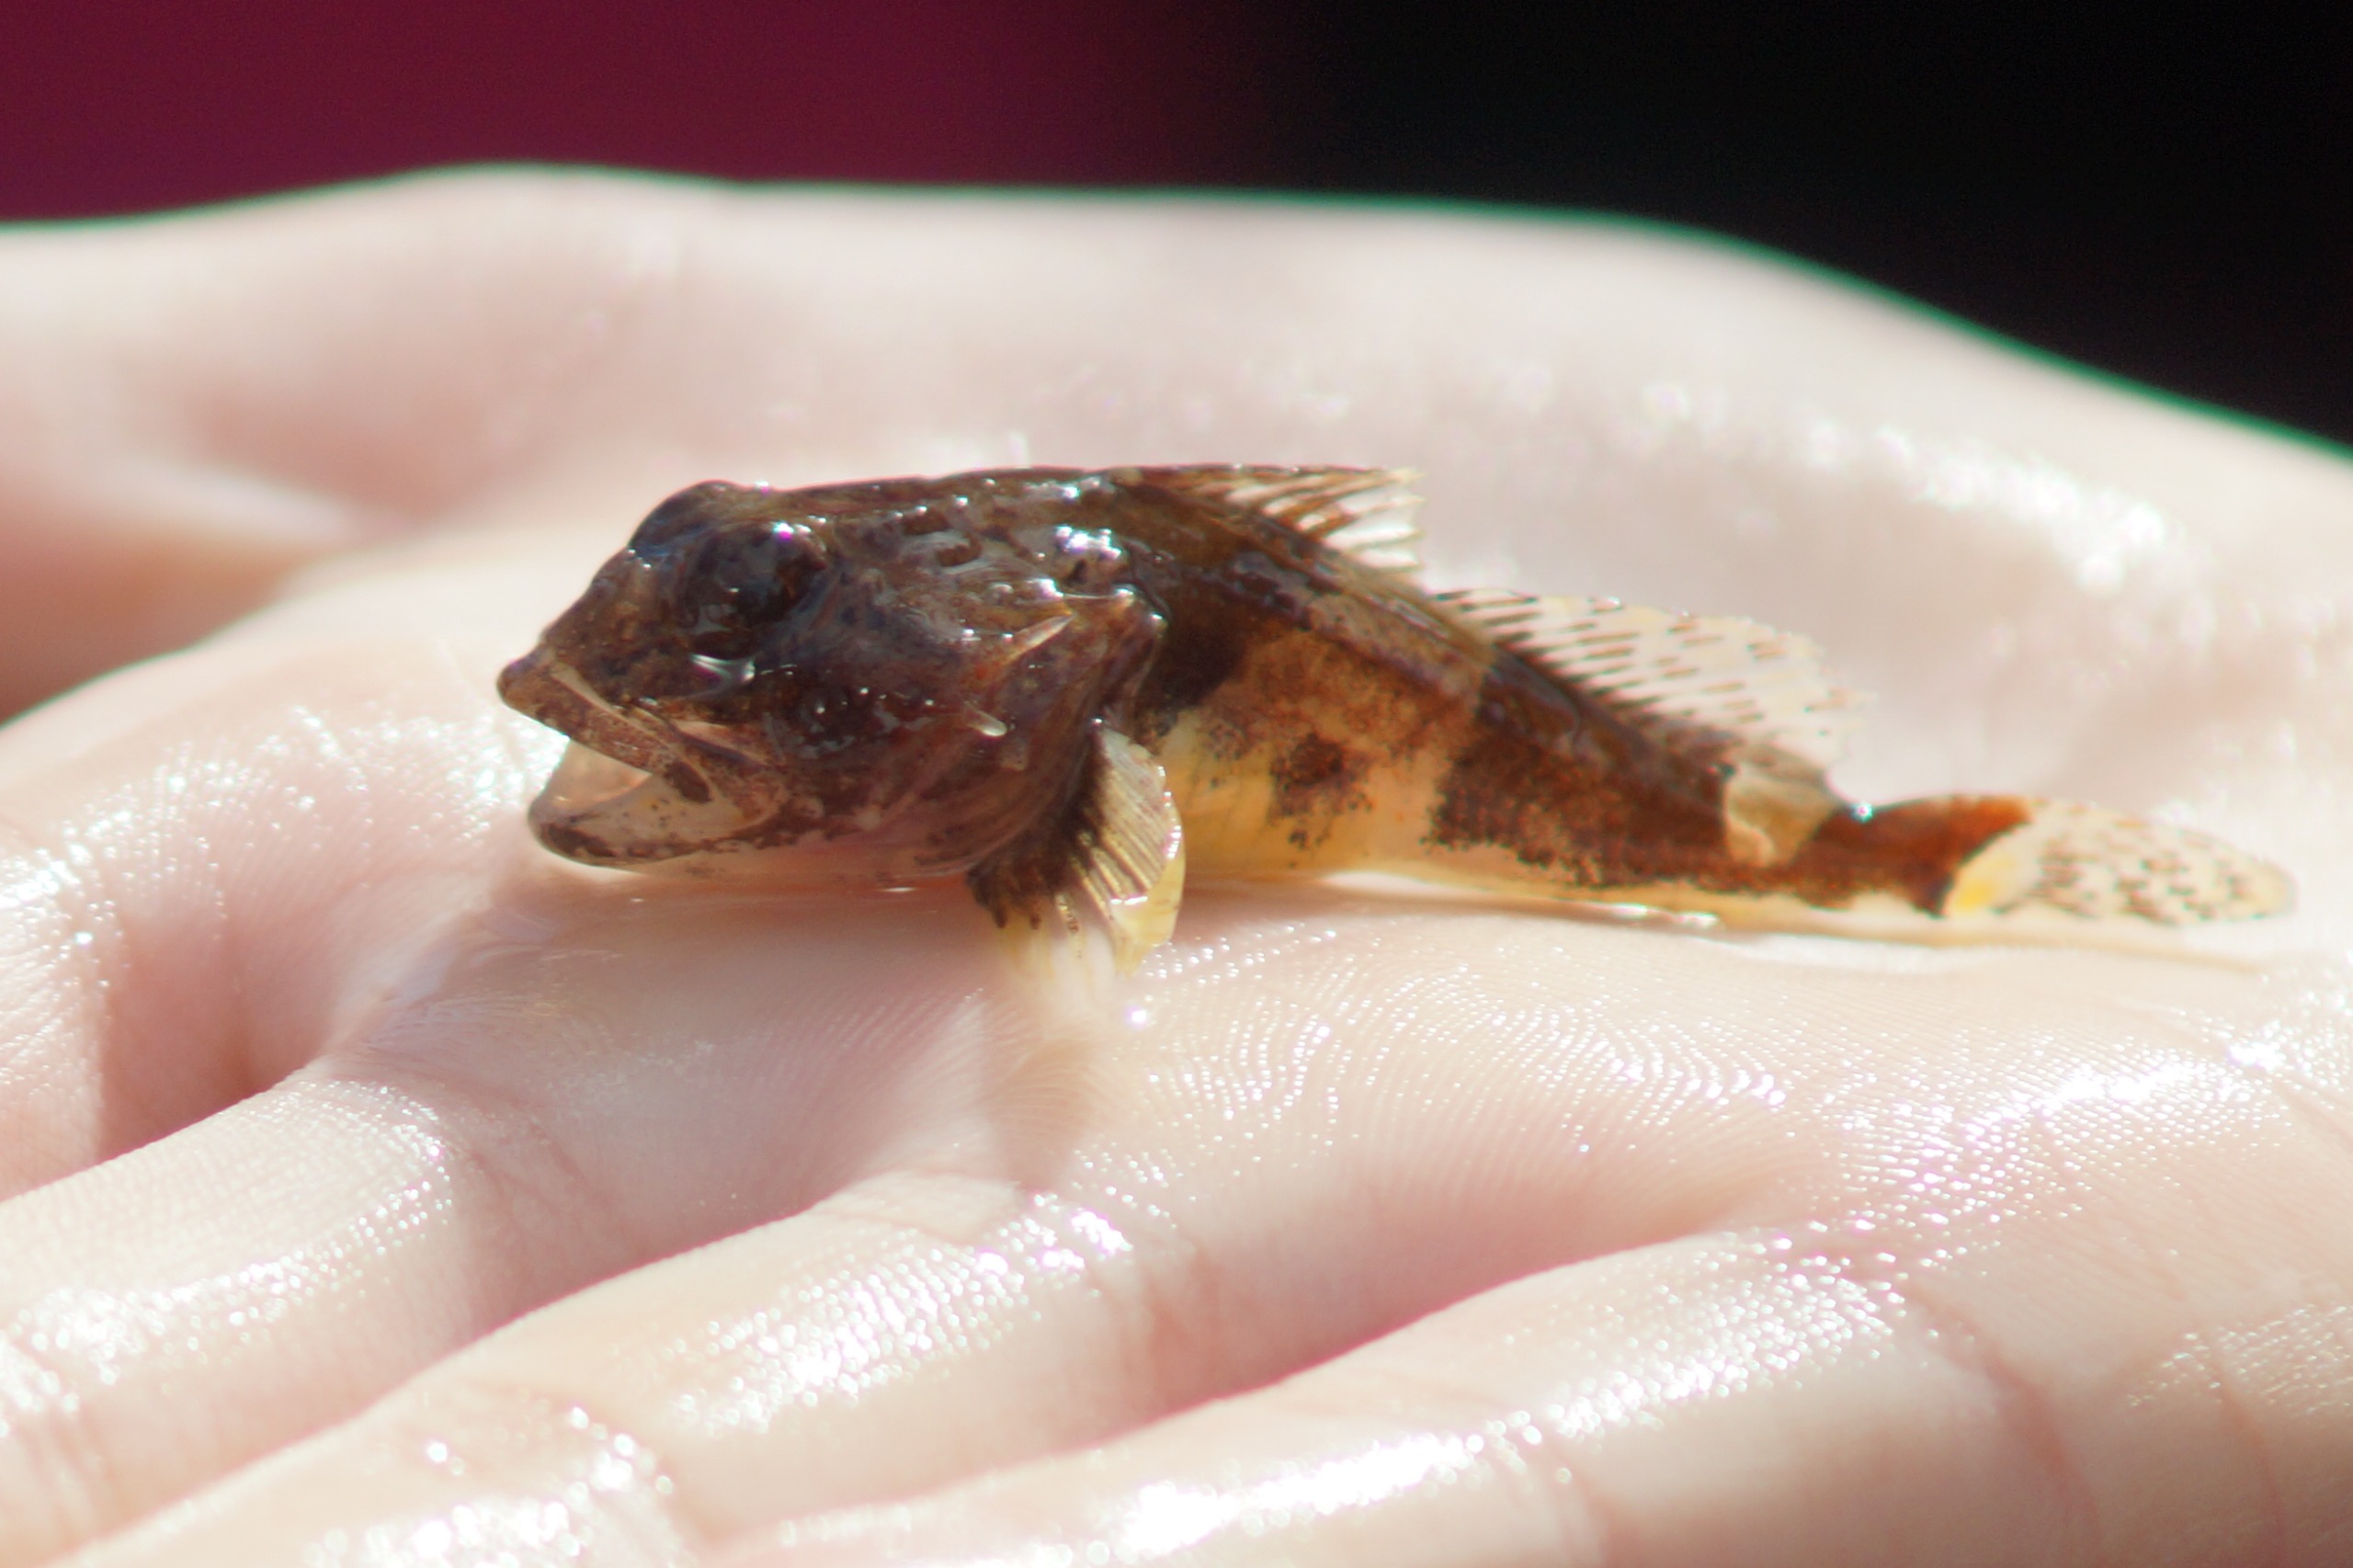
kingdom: Animalia
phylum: Chordata
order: Scorpaeniformes
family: Cottidae
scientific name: Cottidae
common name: Ulkefamilien
